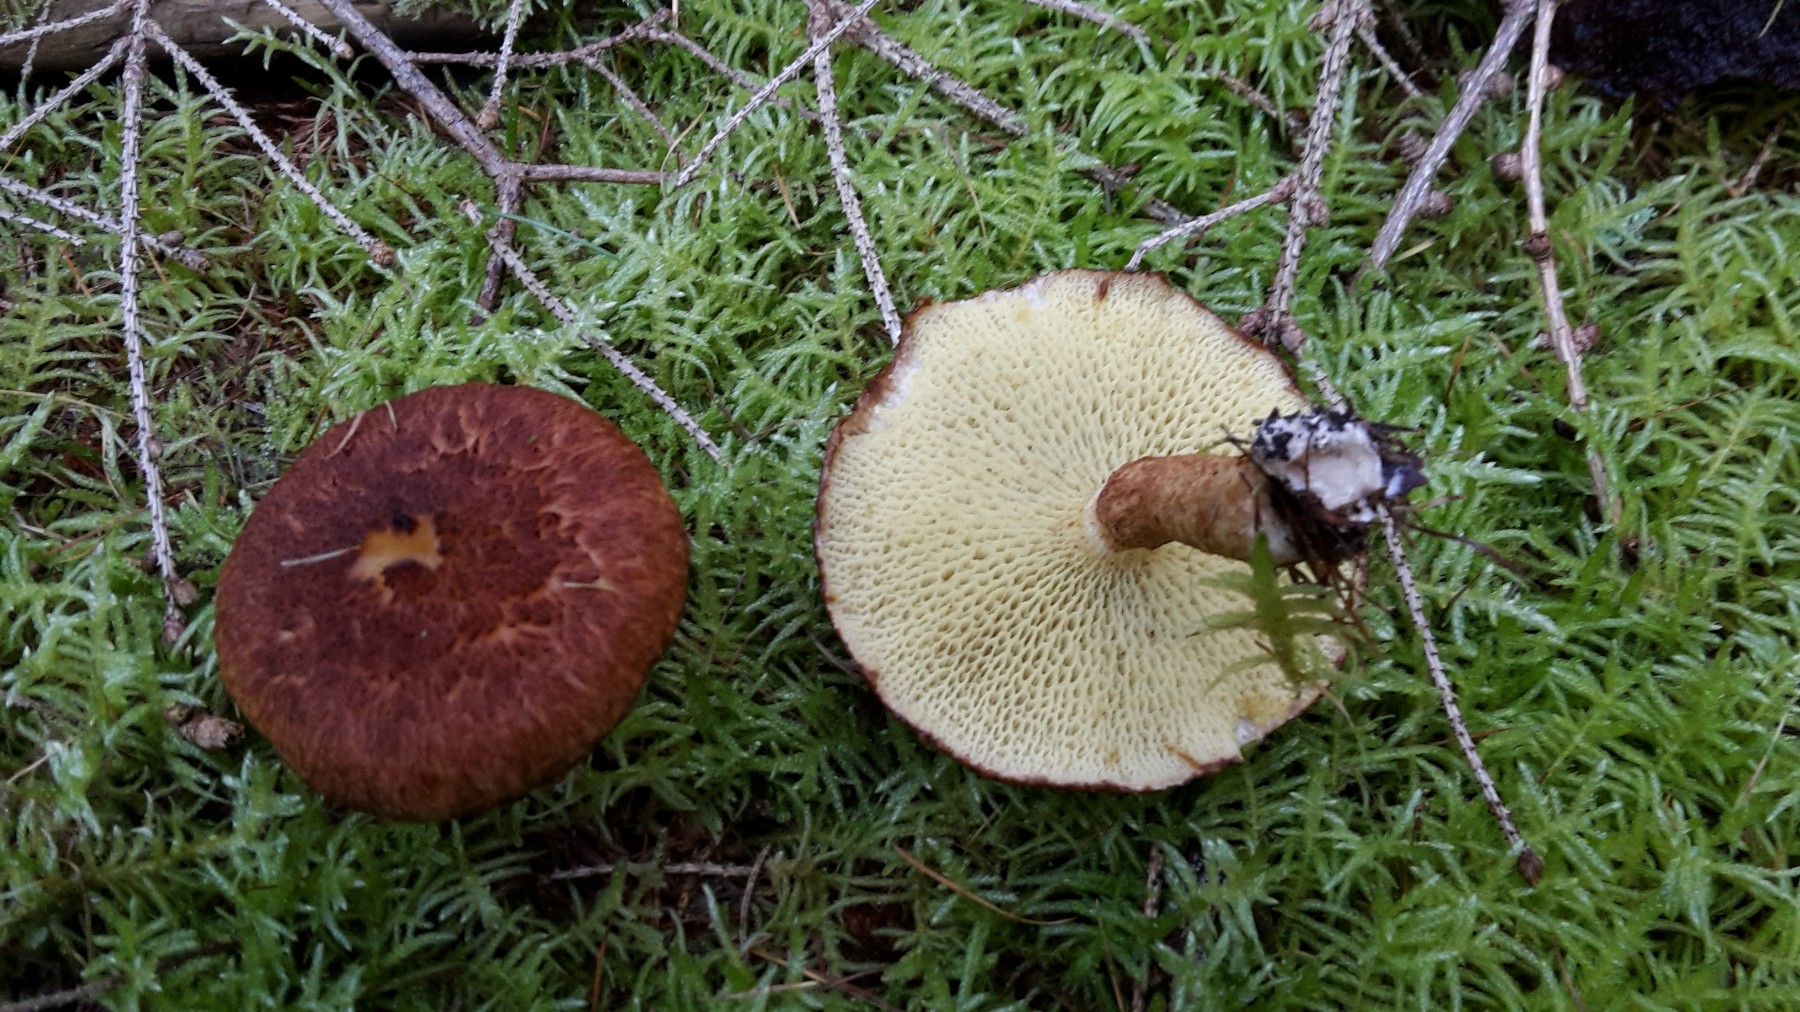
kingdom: Fungi
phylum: Basidiomycota
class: Agaricomycetes
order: Boletales
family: Suillaceae
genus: Suillus
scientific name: Suillus cavipes
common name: hulstokket slimrørhat
